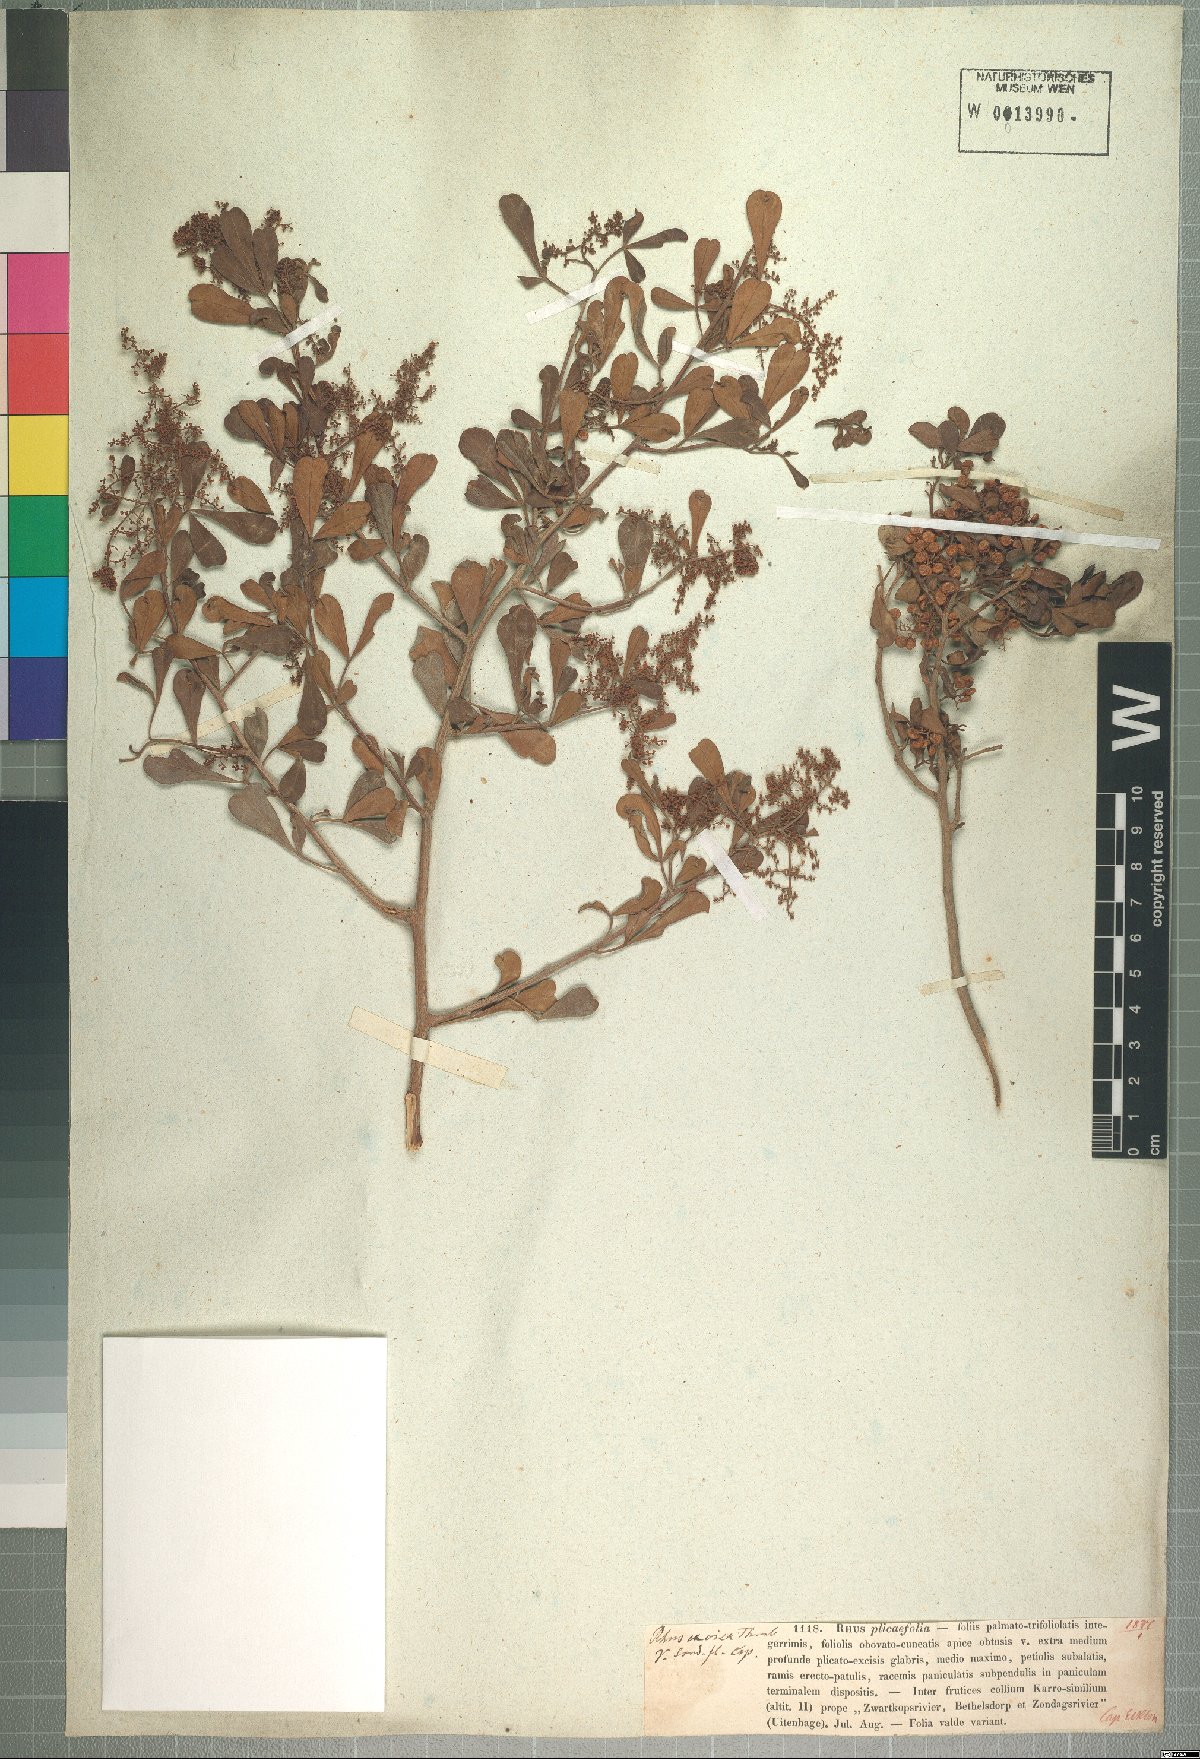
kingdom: Plantae
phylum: Tracheophyta
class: Magnoliopsida
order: Sapindales
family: Anacardiaceae
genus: Rhus
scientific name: Rhus plicaefolia
